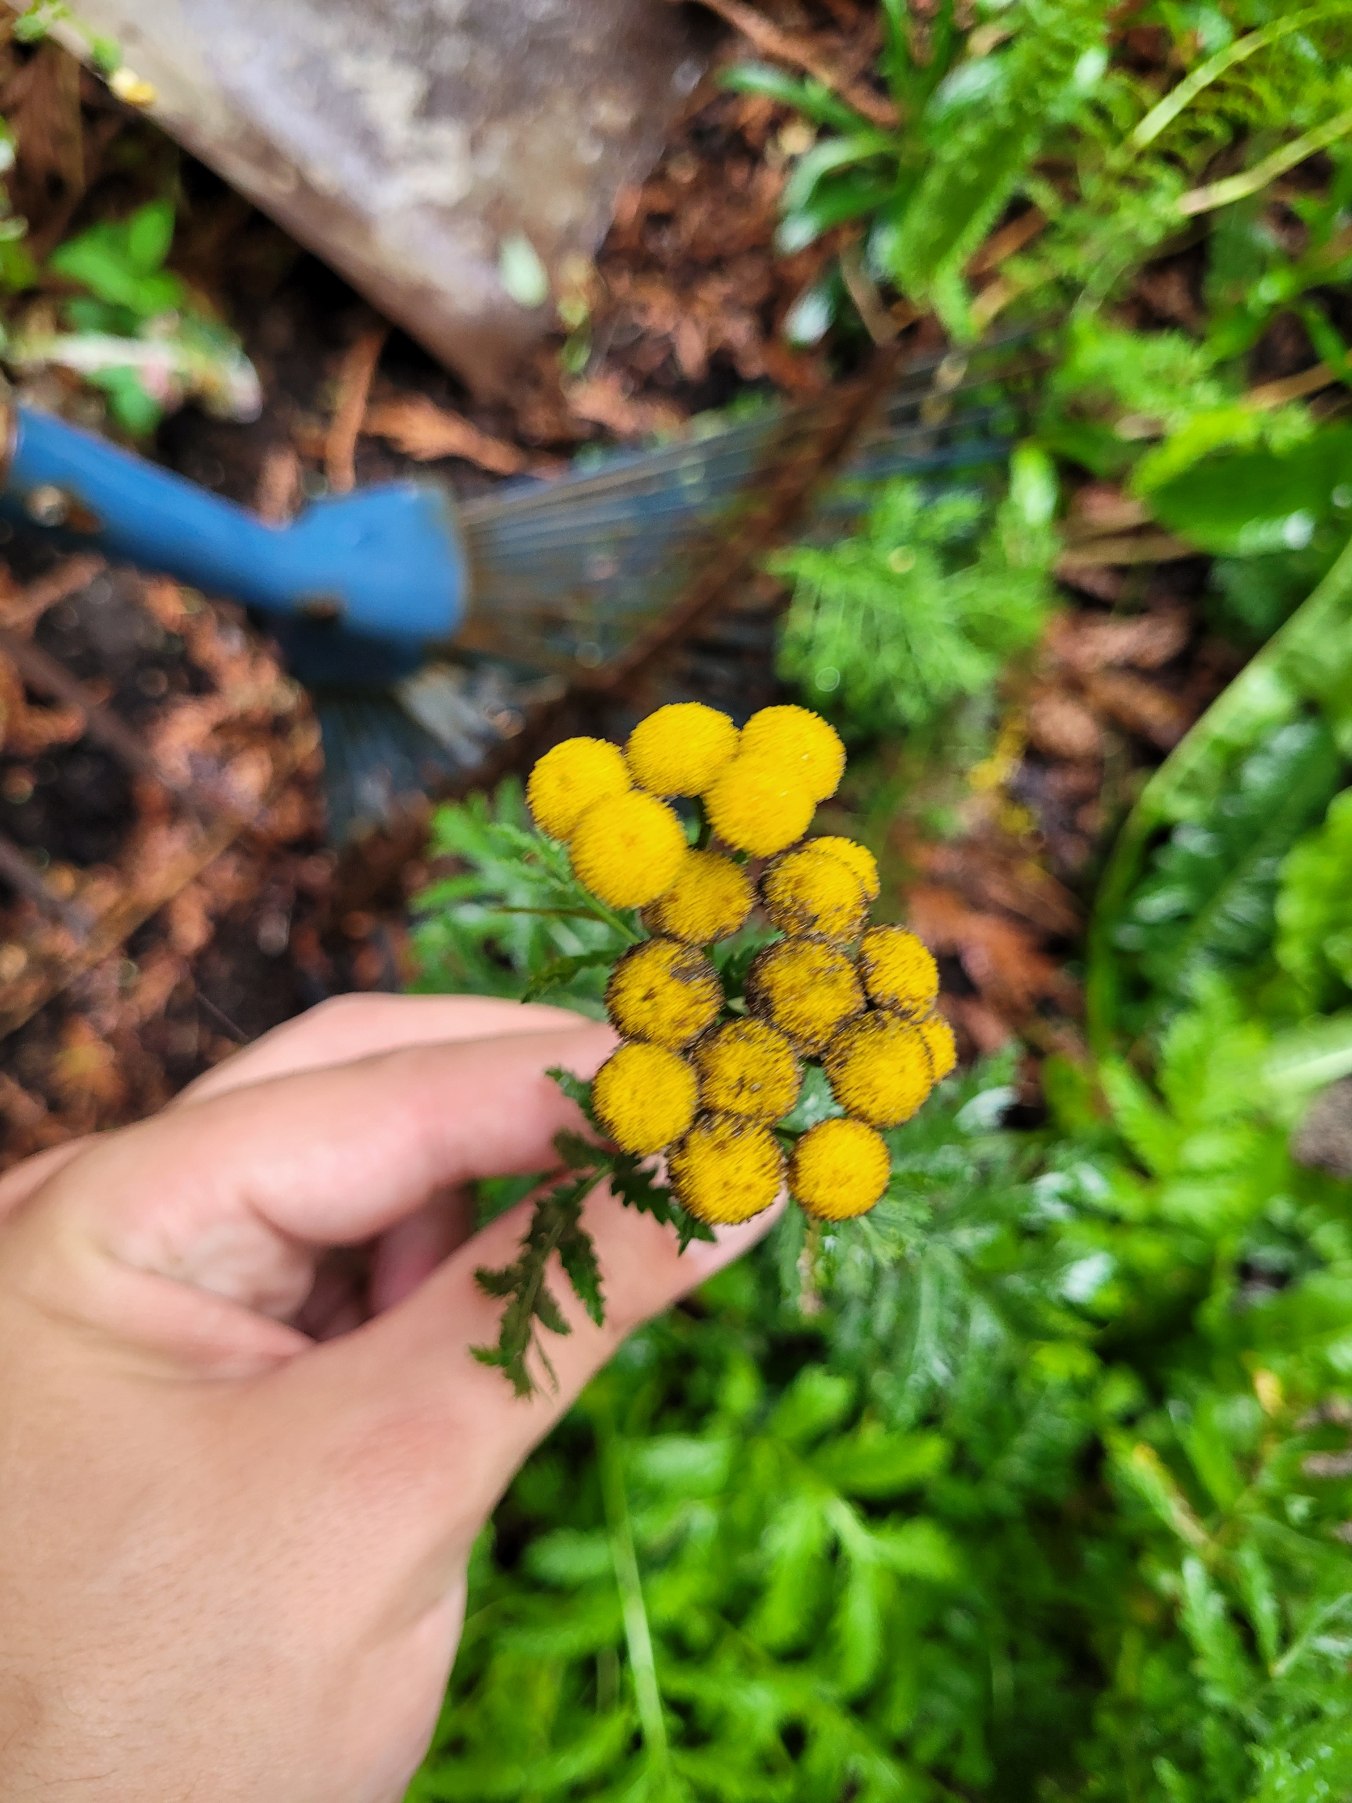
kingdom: Plantae
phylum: Tracheophyta
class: Magnoliopsida
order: Asterales
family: Asteraceae
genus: Tanacetum
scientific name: Tanacetum vulgare
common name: Rejnfan
